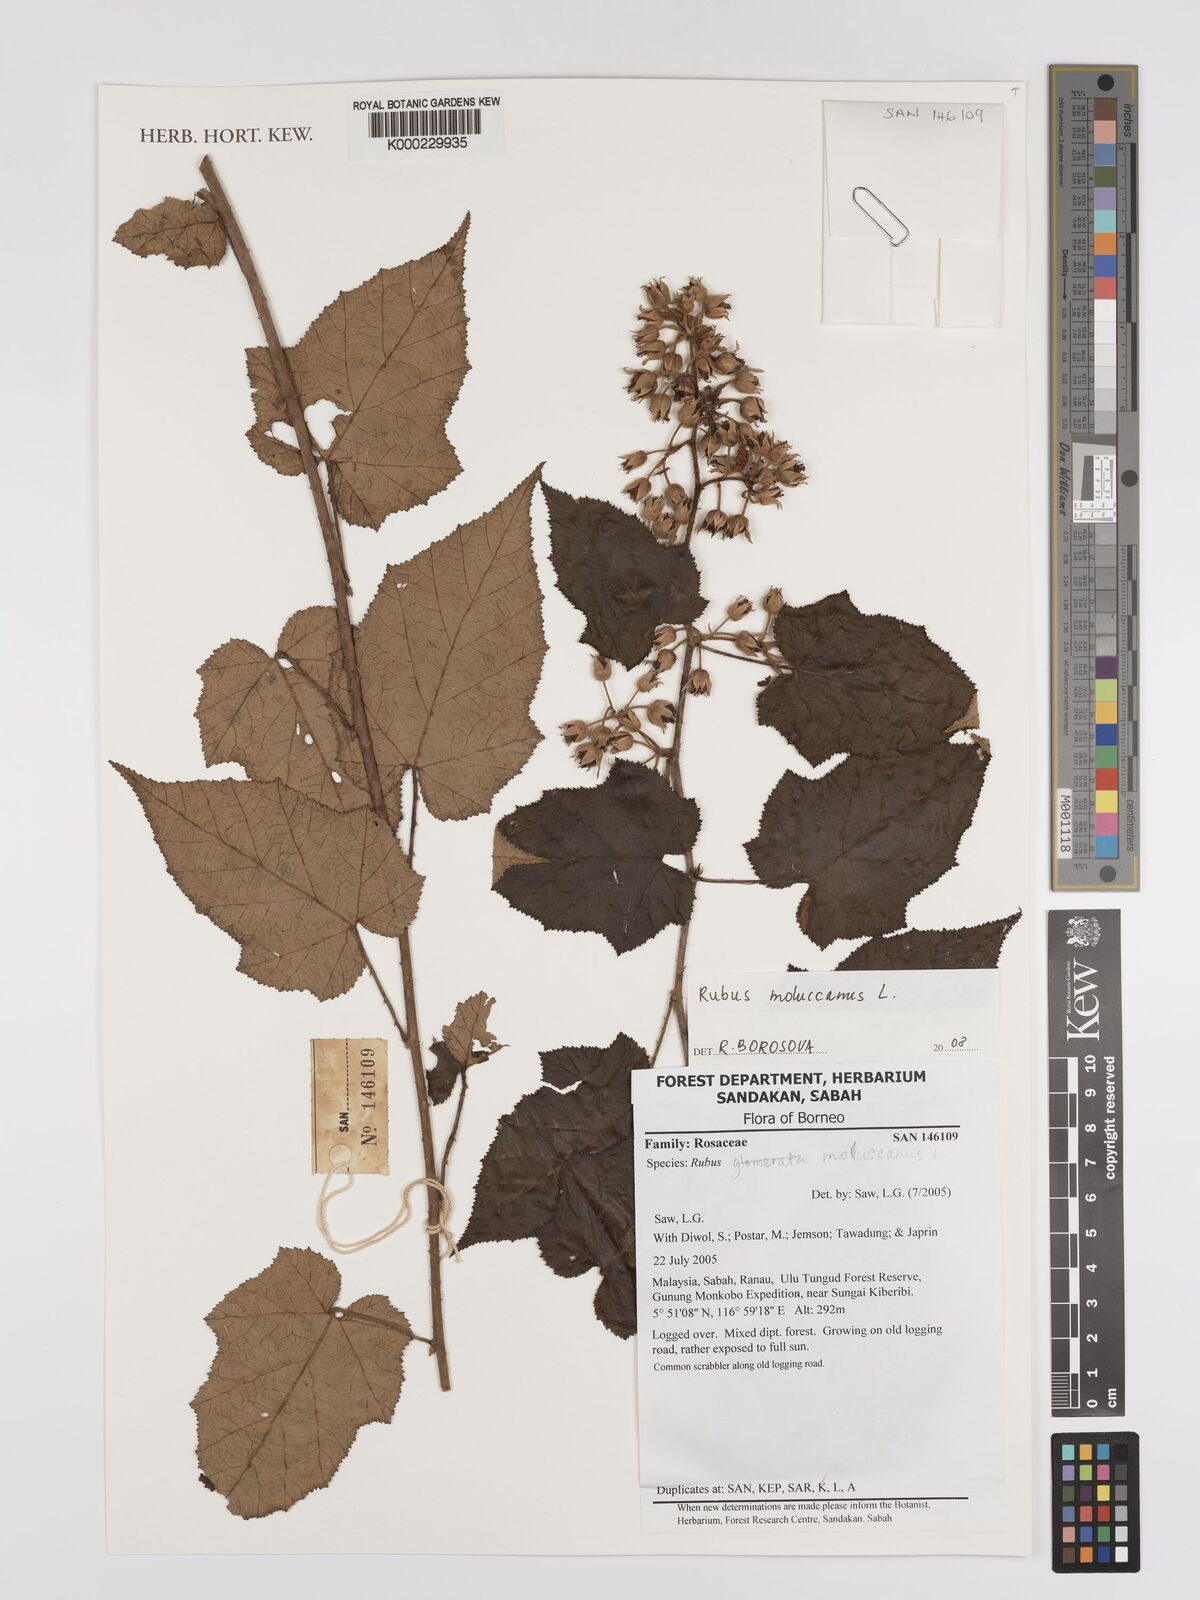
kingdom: Plantae
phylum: Tracheophyta
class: Magnoliopsida
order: Rosales
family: Rosaceae
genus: Rubus
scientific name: Rubus moluccanus
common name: Wild raspberry
